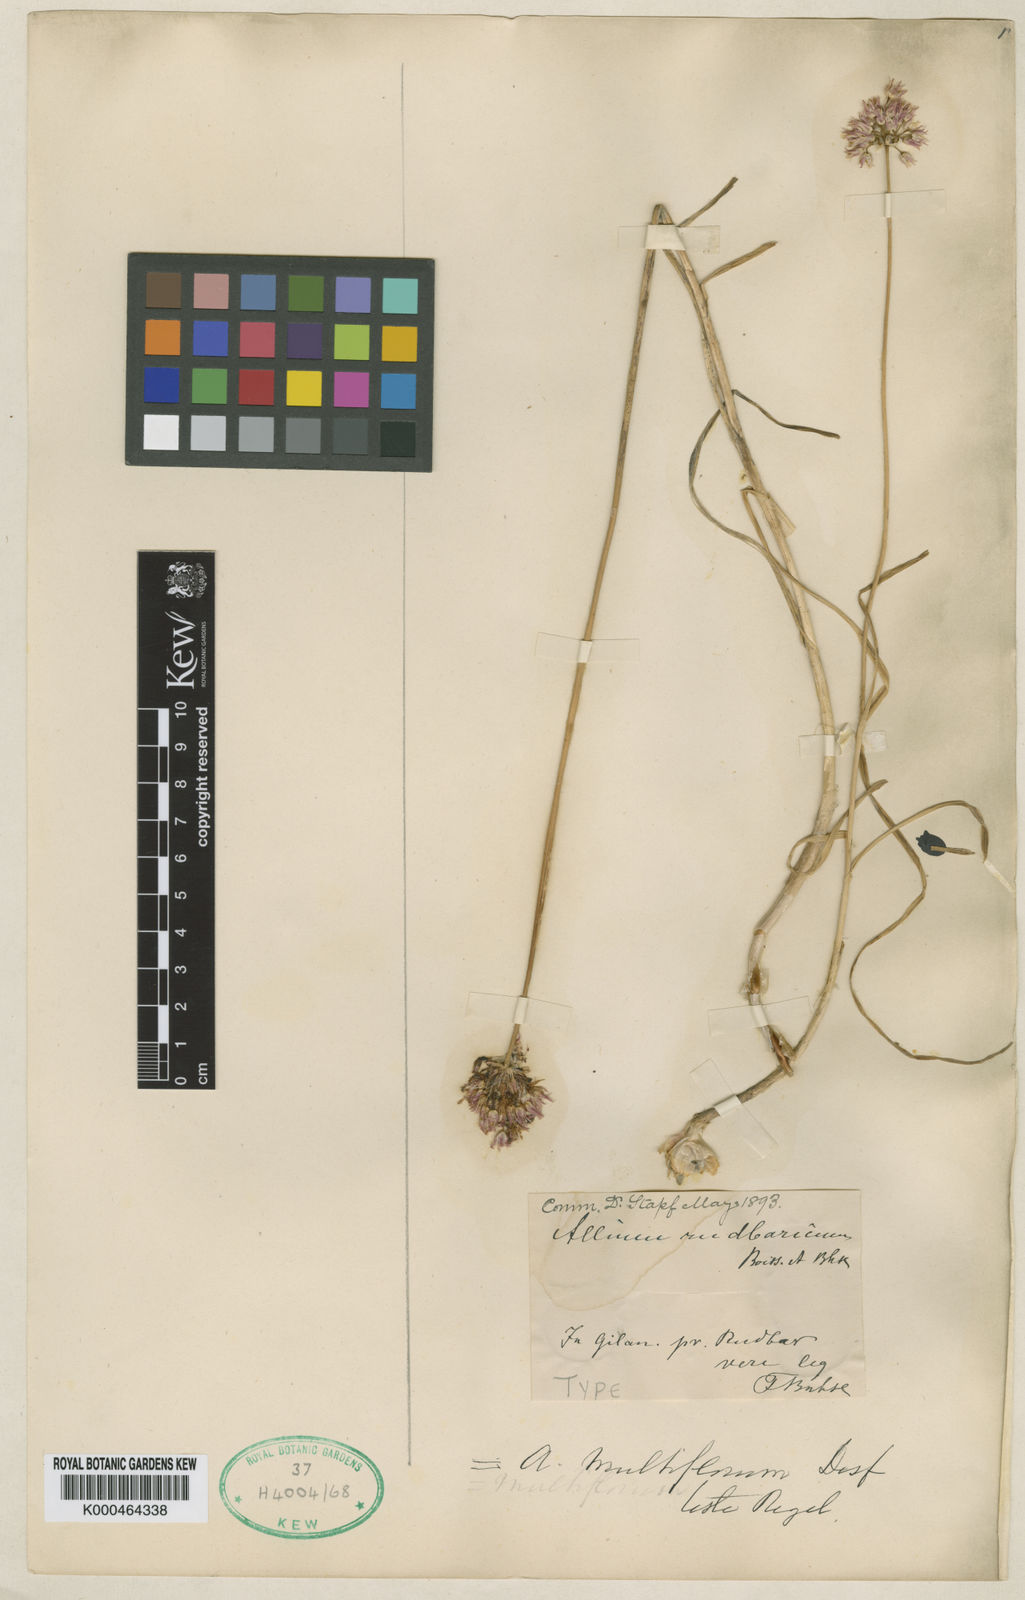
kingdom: Plantae
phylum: Tracheophyta
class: Liliopsida
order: Asparagales
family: Amaryllidaceae
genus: Allium
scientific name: Allium erubescens
